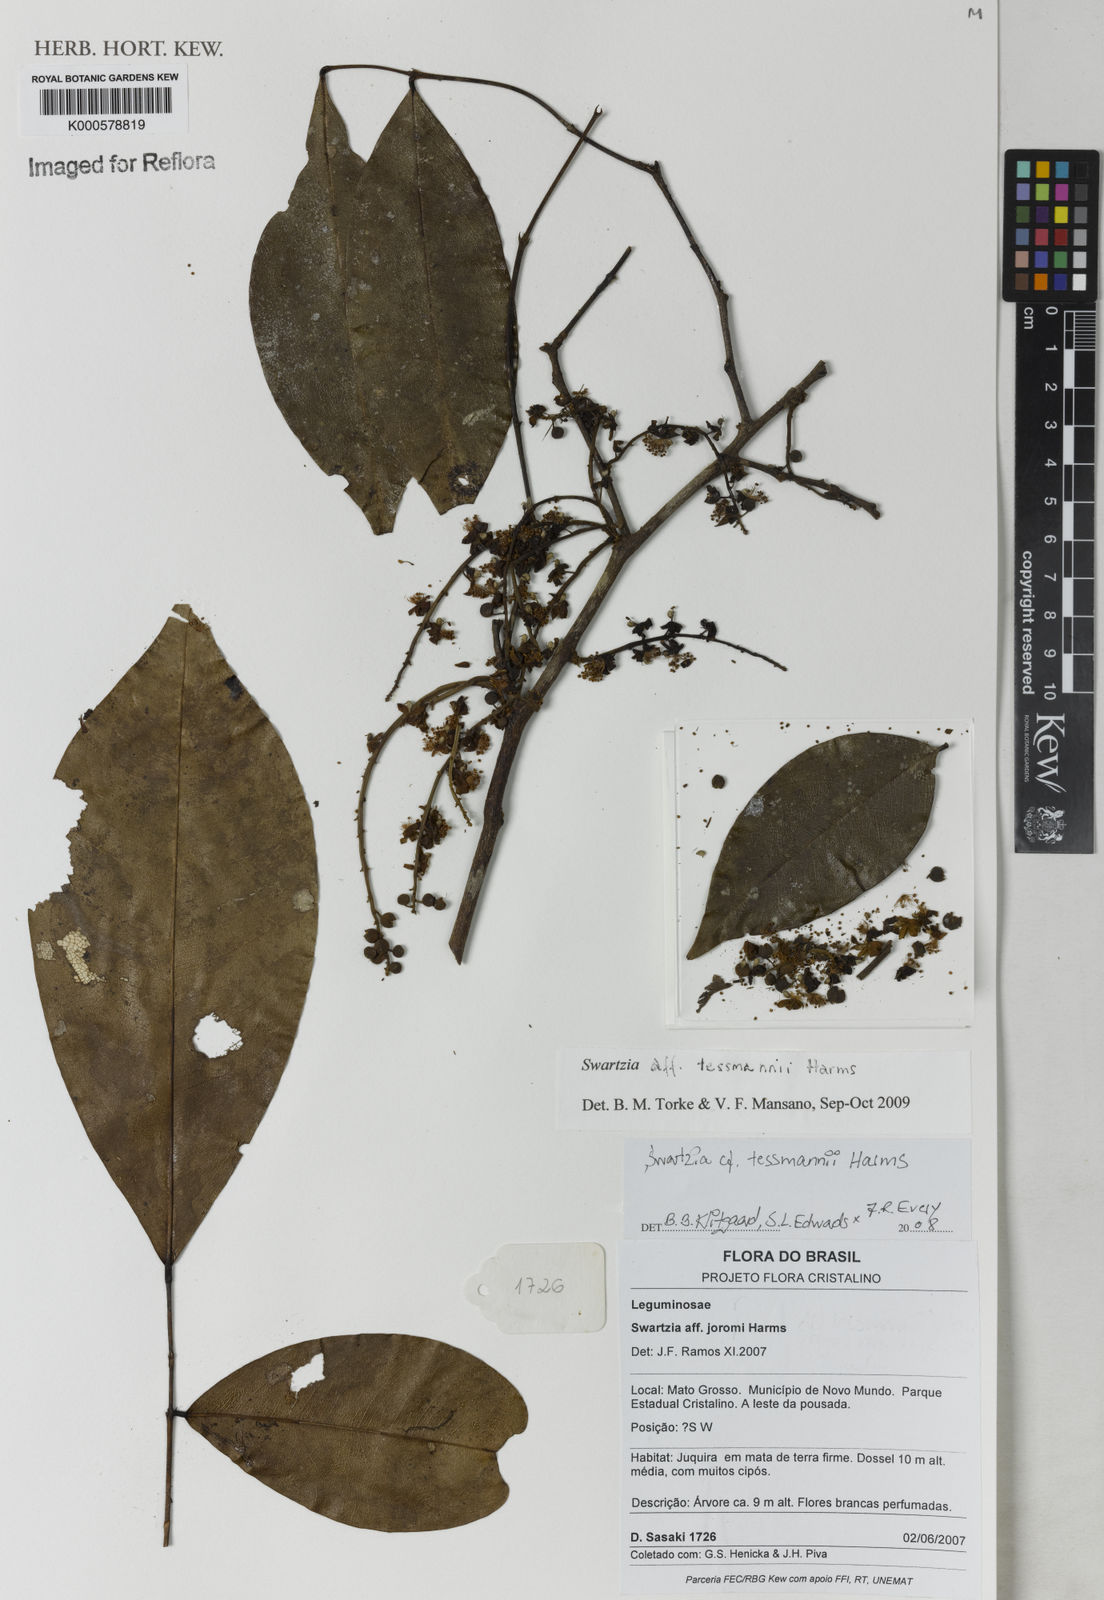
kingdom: Plantae
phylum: Tracheophyta
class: Magnoliopsida
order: Fabales
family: Fabaceae
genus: Swartzia
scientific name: Swartzia tessmannii
